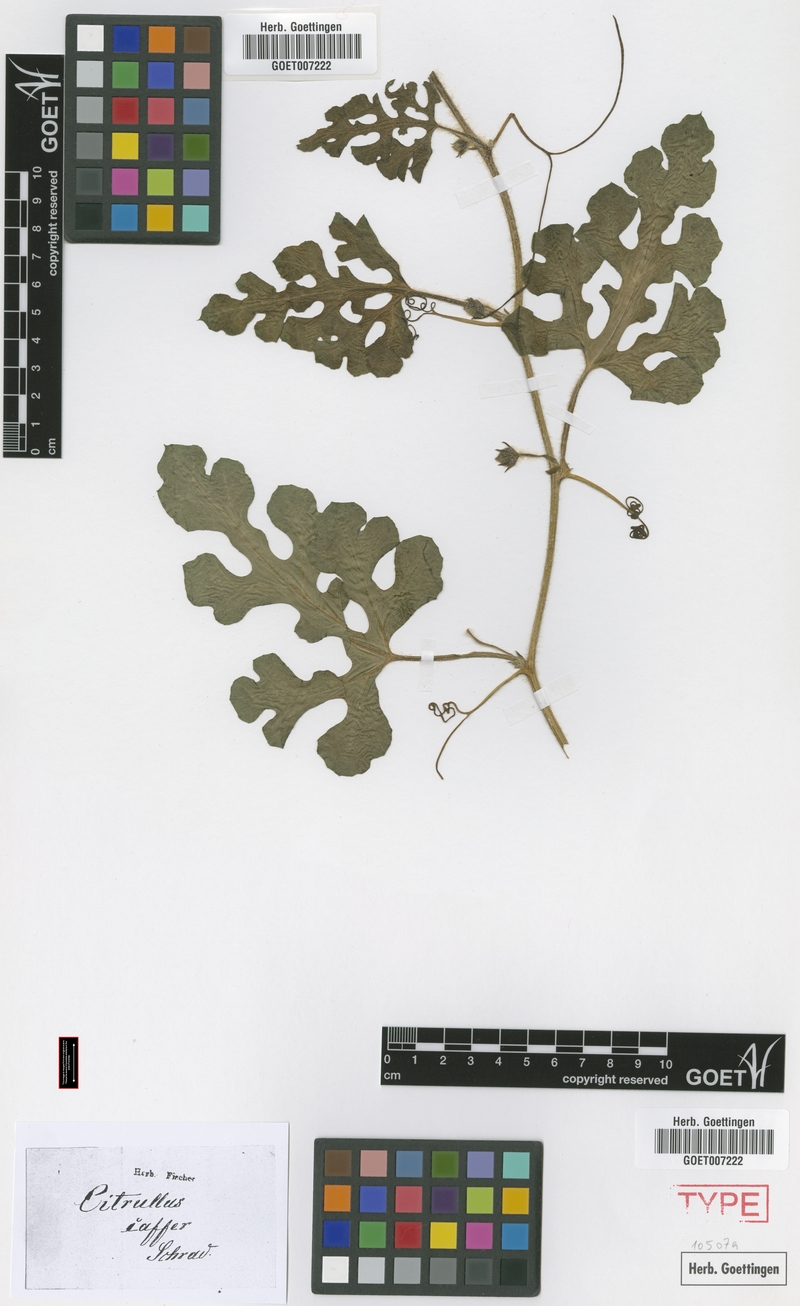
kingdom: Plantae
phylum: Tracheophyta
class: Magnoliopsida
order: Cucurbitales
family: Cucurbitaceae
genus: Citrullus
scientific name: Citrullus amarus
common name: Fodder-melon
